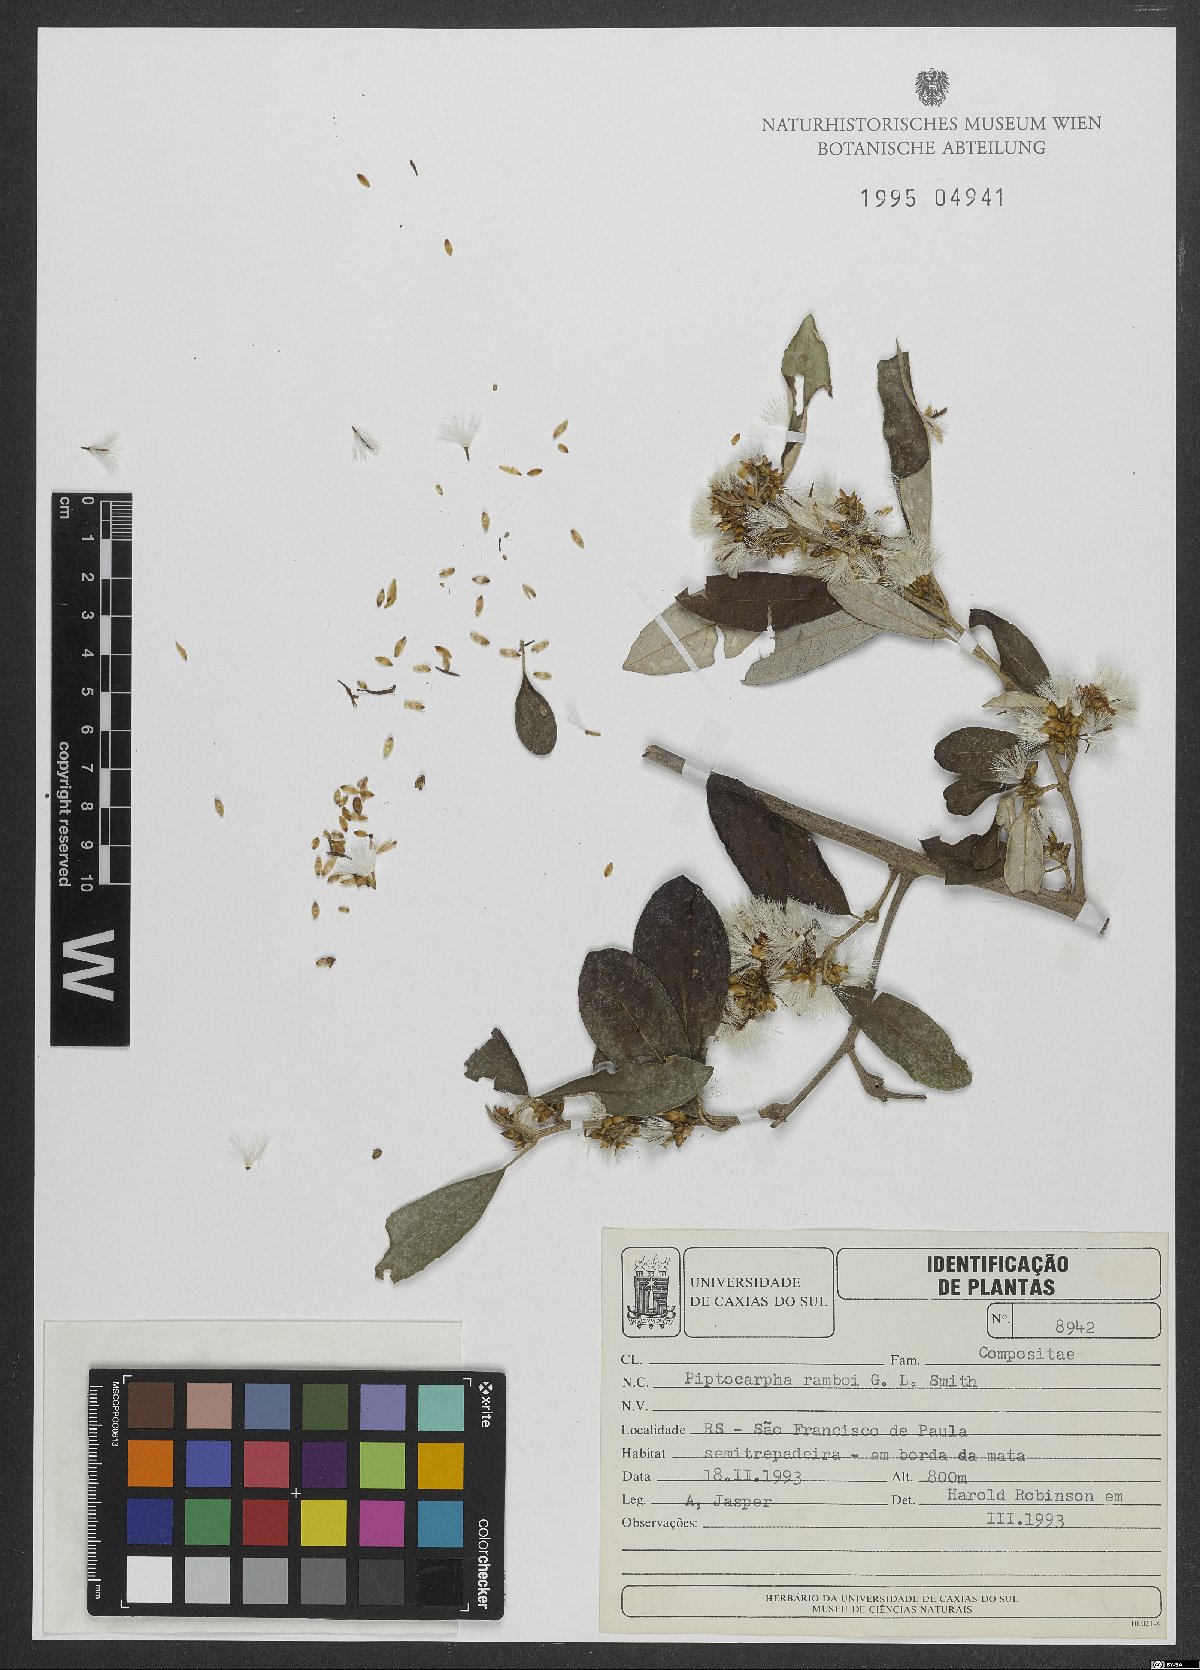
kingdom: Plantae
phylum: Tracheophyta
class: Magnoliopsida
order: Asterales
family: Asteraceae
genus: Piptocarpha
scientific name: Piptocarpha ramboi
